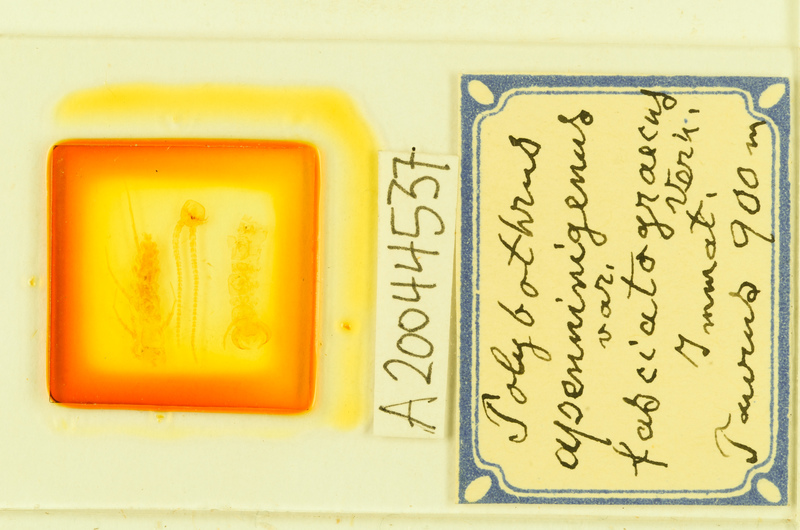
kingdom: Animalia
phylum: Arthropoda
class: Chilopoda
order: Lithobiomorpha
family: Lithobiidae
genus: Polybothrus
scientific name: Polybothrus
